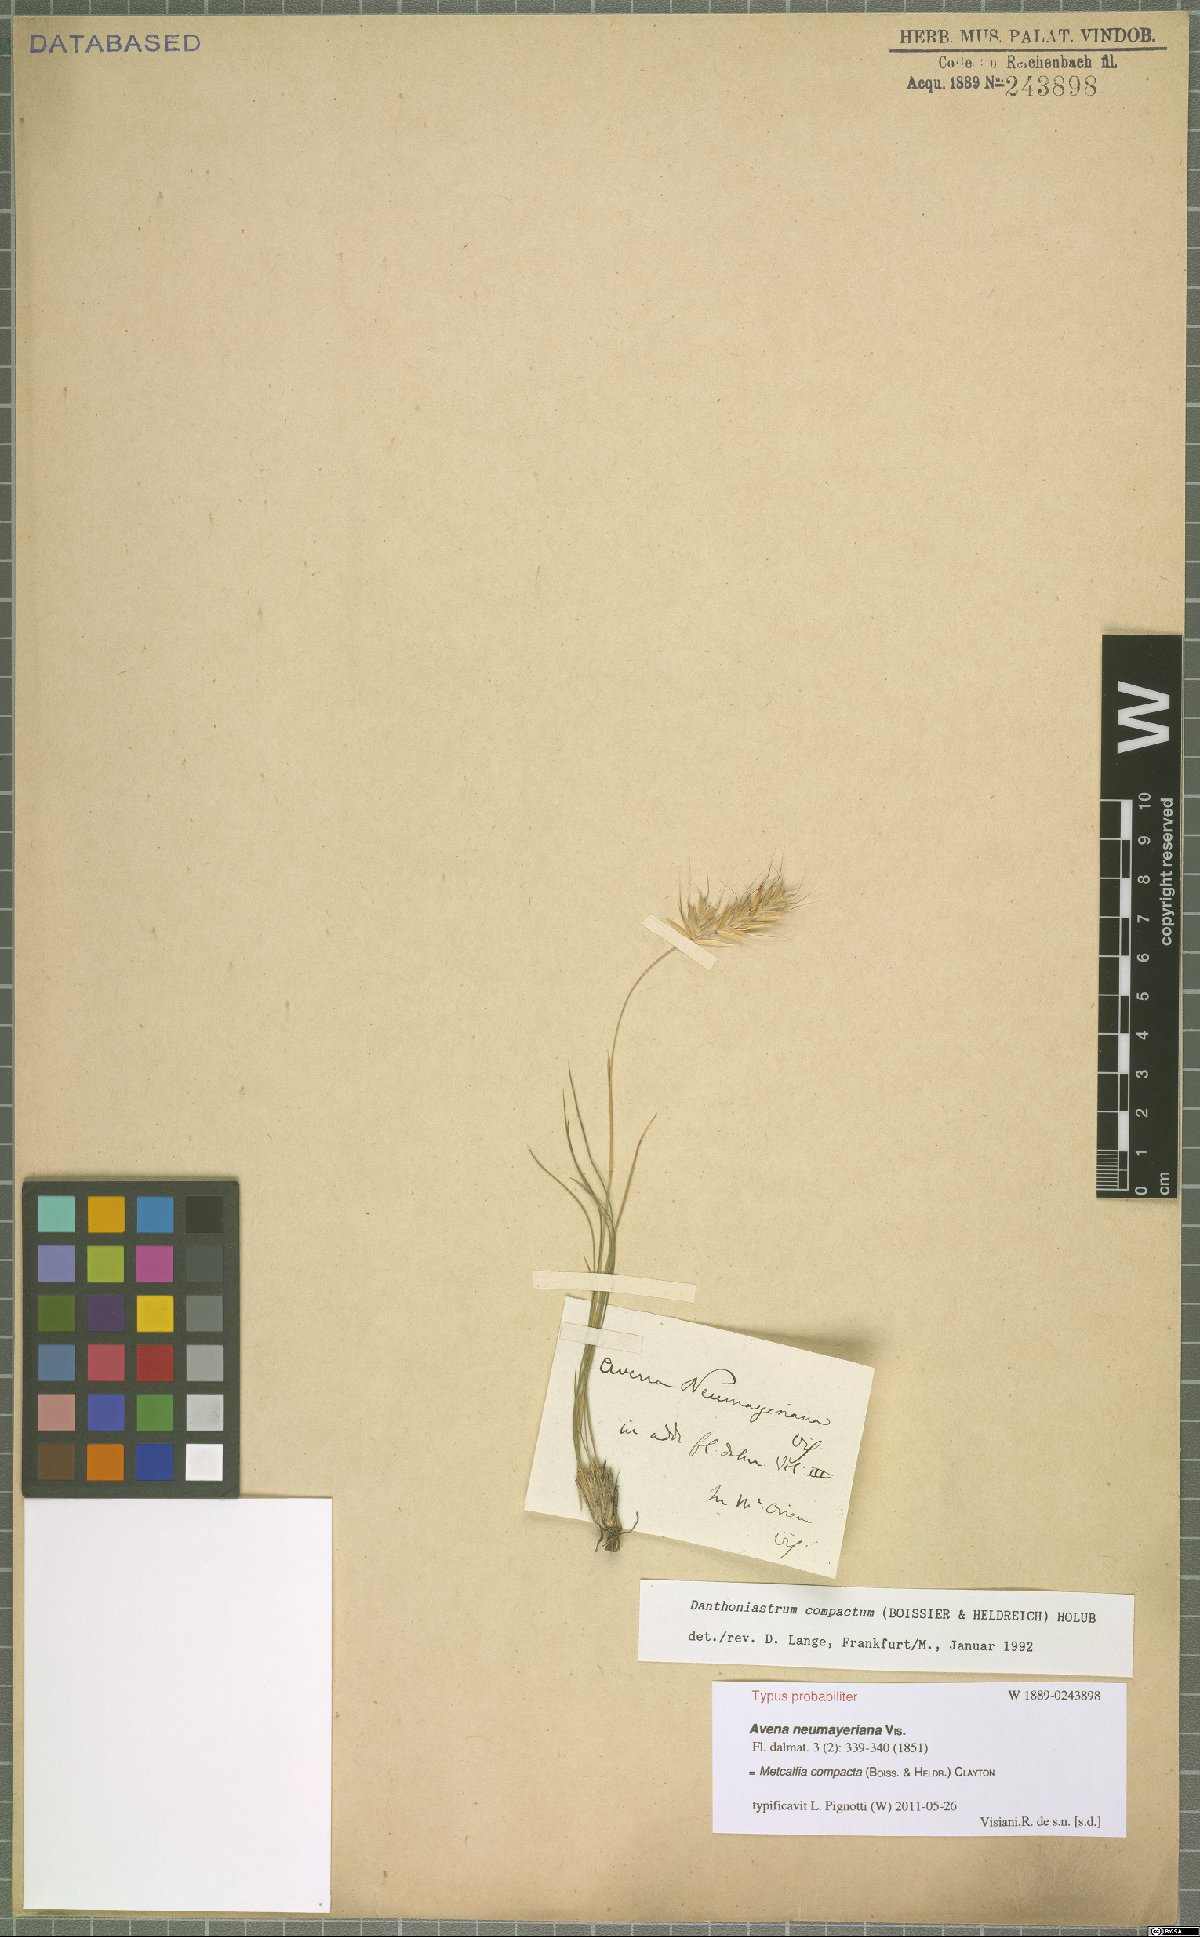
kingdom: Plantae
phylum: Tracheophyta
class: Liliopsida
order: Poales
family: Poaceae
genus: Danthoniastrum
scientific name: Danthoniastrum compactum
